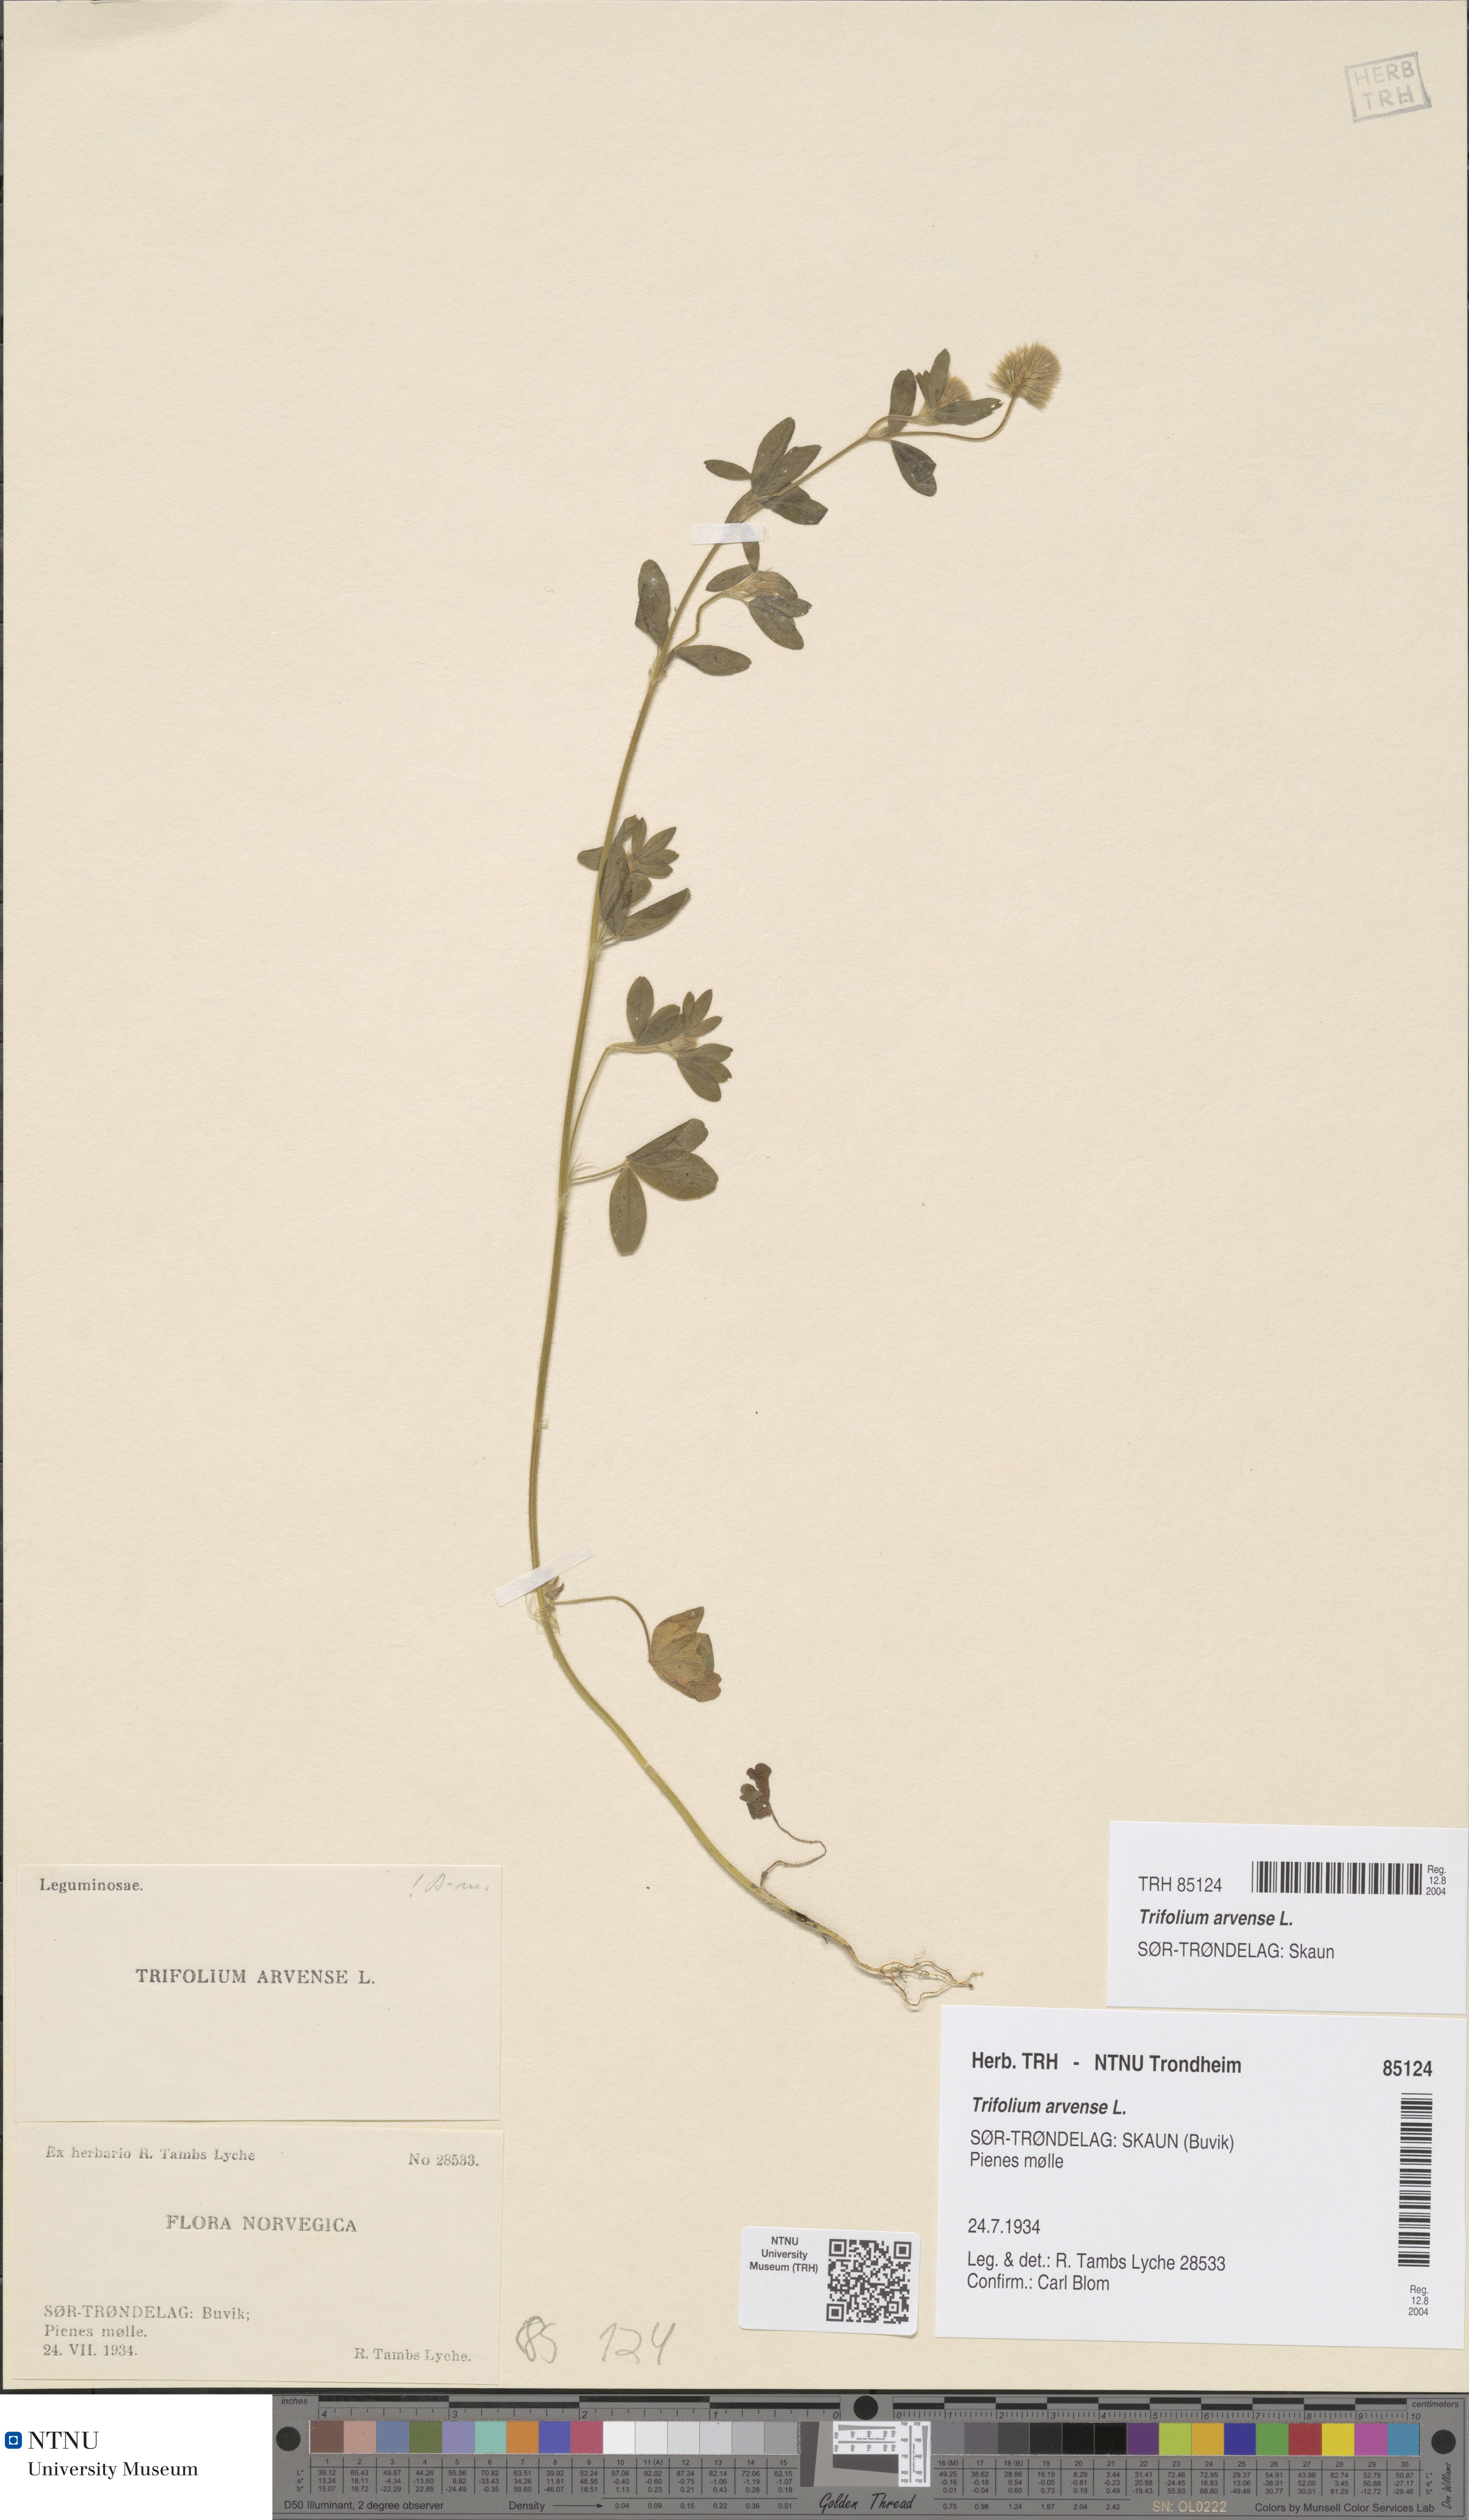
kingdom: Plantae
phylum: Tracheophyta
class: Magnoliopsida
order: Fabales
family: Fabaceae
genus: Trifolium
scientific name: Trifolium arvense
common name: Hare's-foot clover
